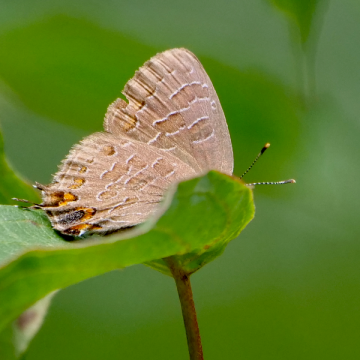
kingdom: Animalia
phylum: Arthropoda
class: Insecta
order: Lepidoptera
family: Lycaenidae
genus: Satyrium
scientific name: Satyrium liparops
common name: Striped Hairstreak
